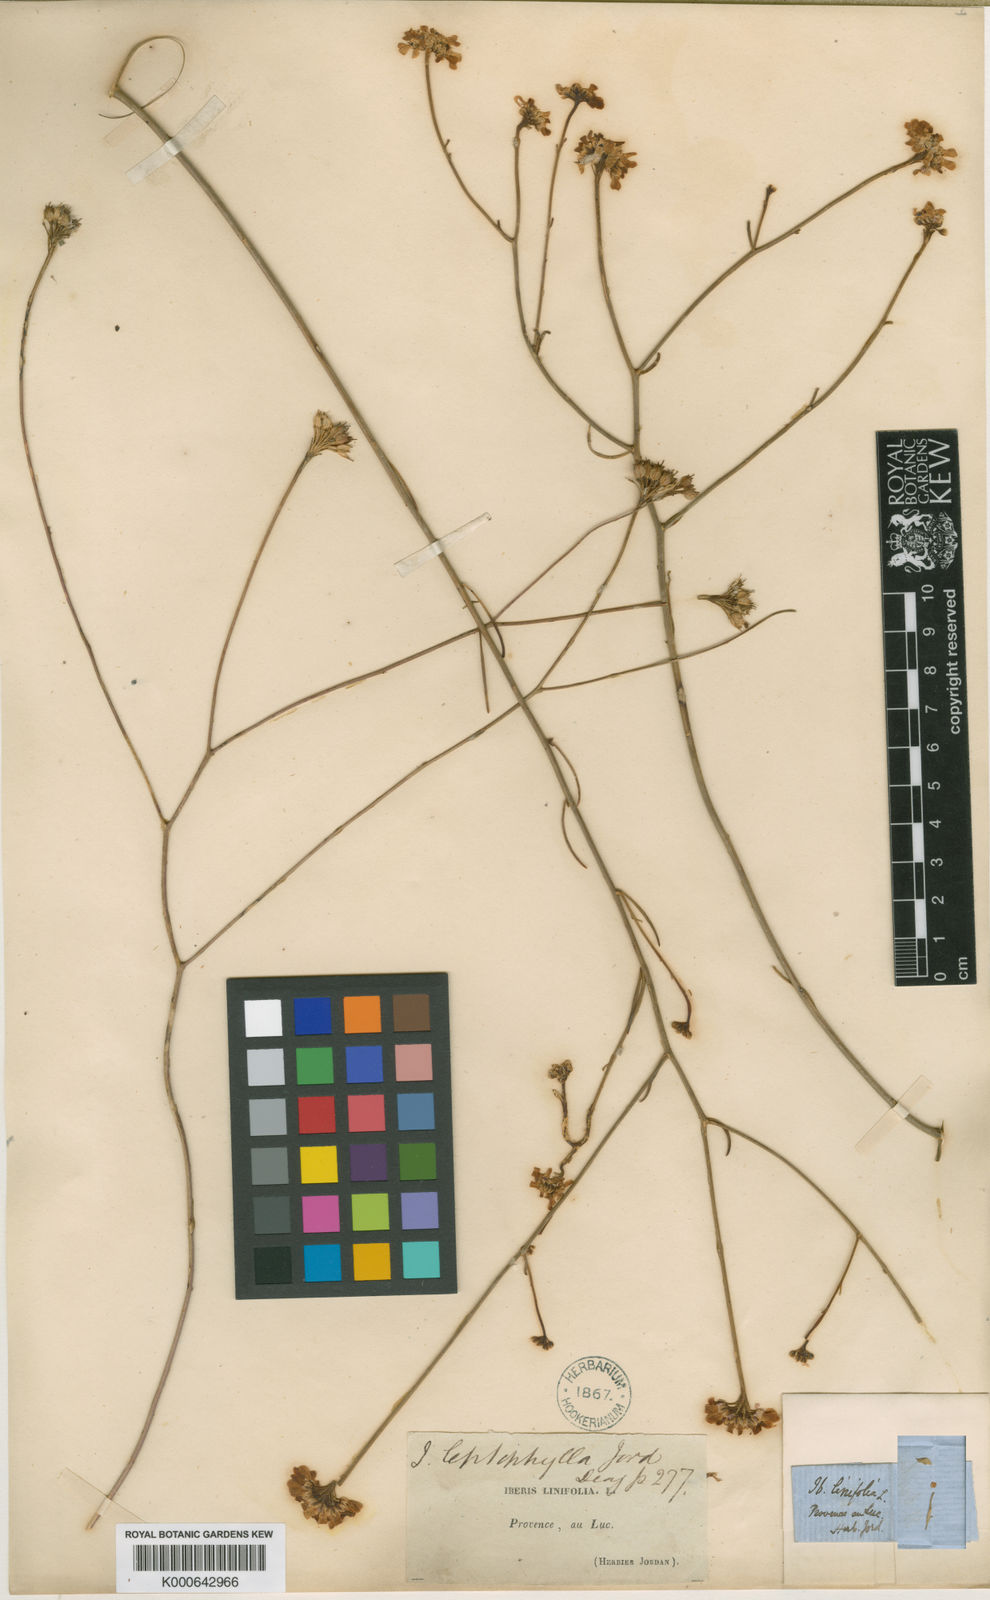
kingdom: Plantae
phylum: Tracheophyta
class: Magnoliopsida
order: Brassicales
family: Brassicaceae
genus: Iberis
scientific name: Iberis linifolia
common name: Candytuft
